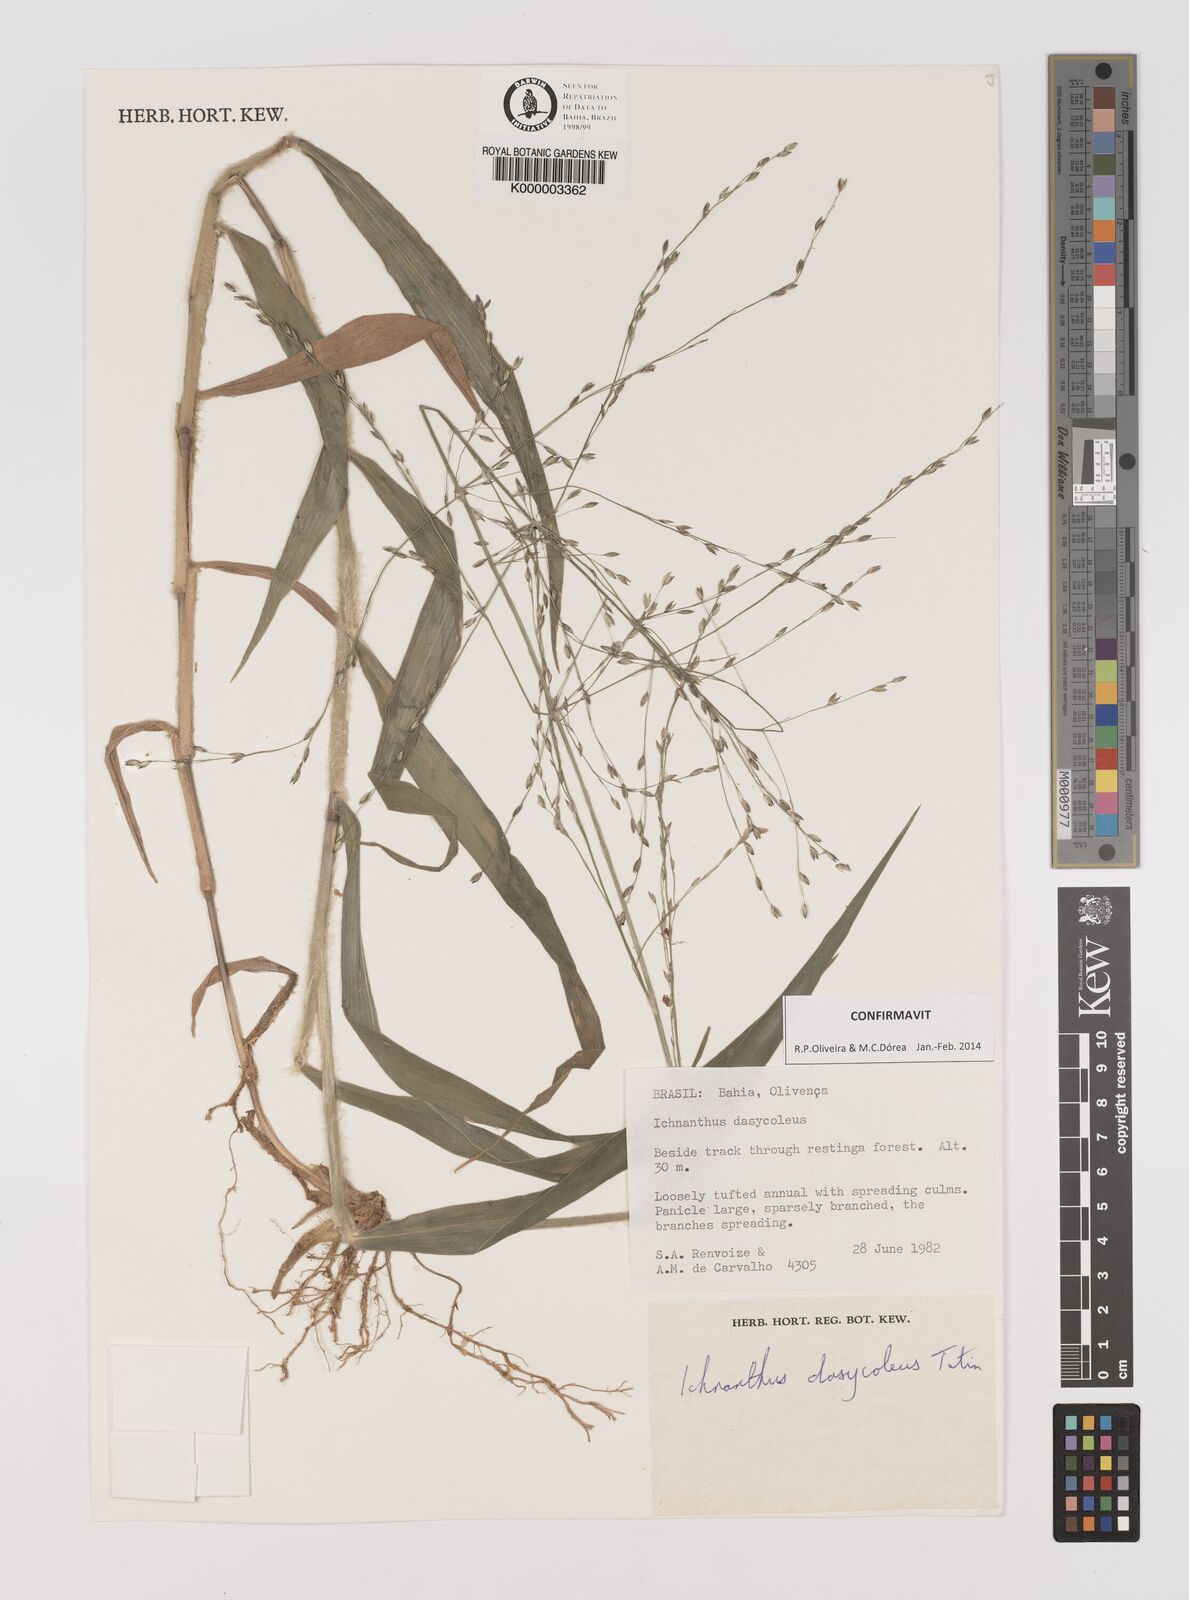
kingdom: Plantae
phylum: Tracheophyta
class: Liliopsida
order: Poales
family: Poaceae
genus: Ichnanthus
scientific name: Ichnanthus dasycoleus
